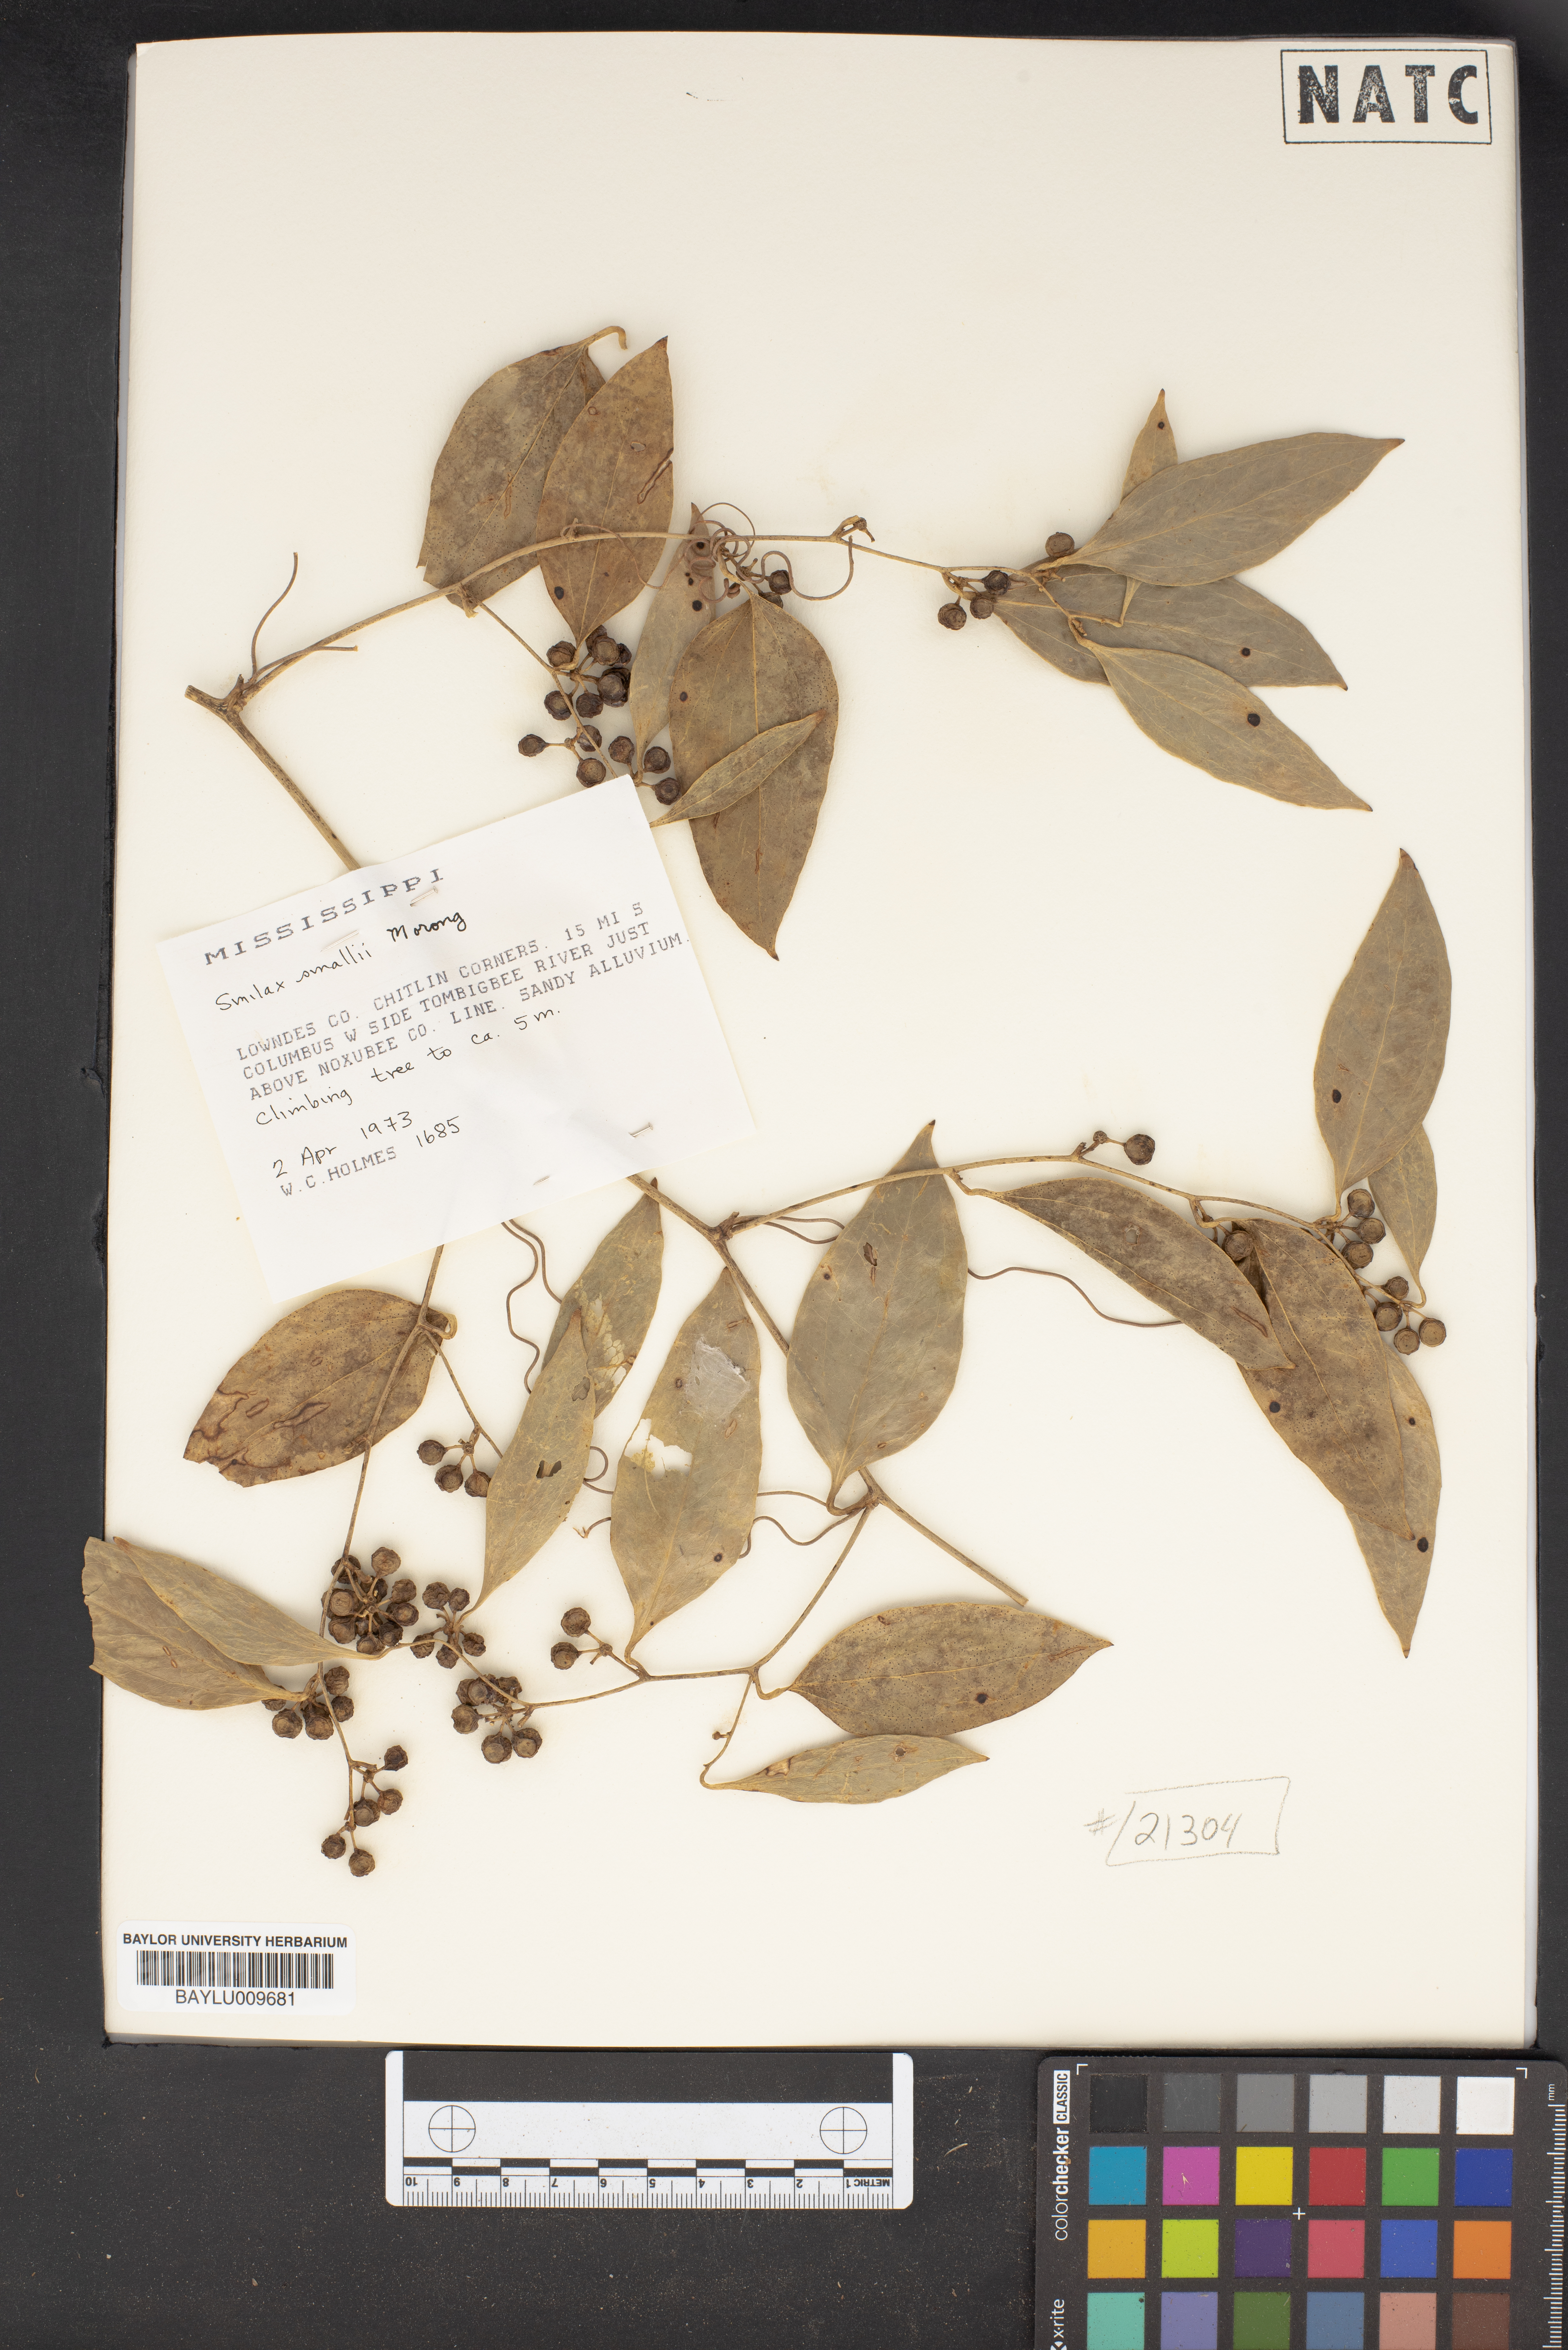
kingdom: Plantae
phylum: Tracheophyta
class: Liliopsida
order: Liliales
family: Smilacaceae
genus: Smilax
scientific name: Smilax maritima
